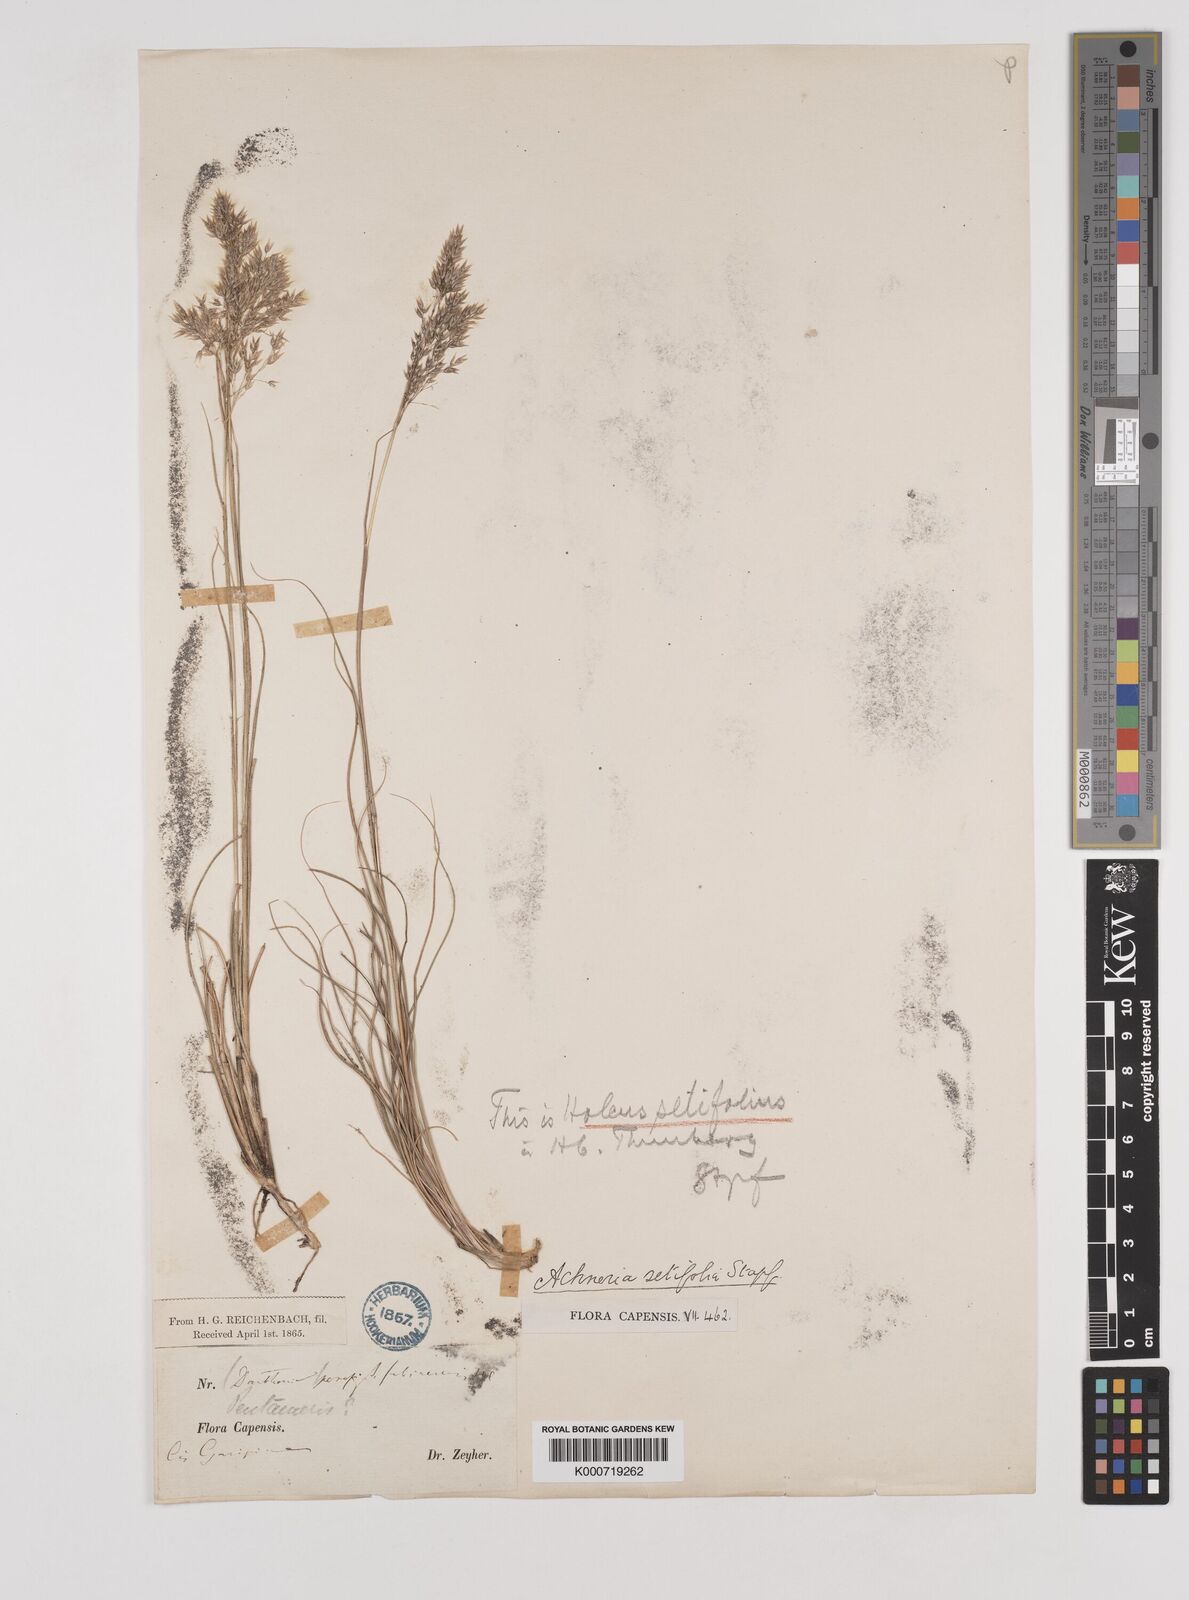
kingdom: Plantae
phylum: Tracheophyta
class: Liliopsida
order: Poales
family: Poaceae
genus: Pentameris
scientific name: Pentameris setifolia
